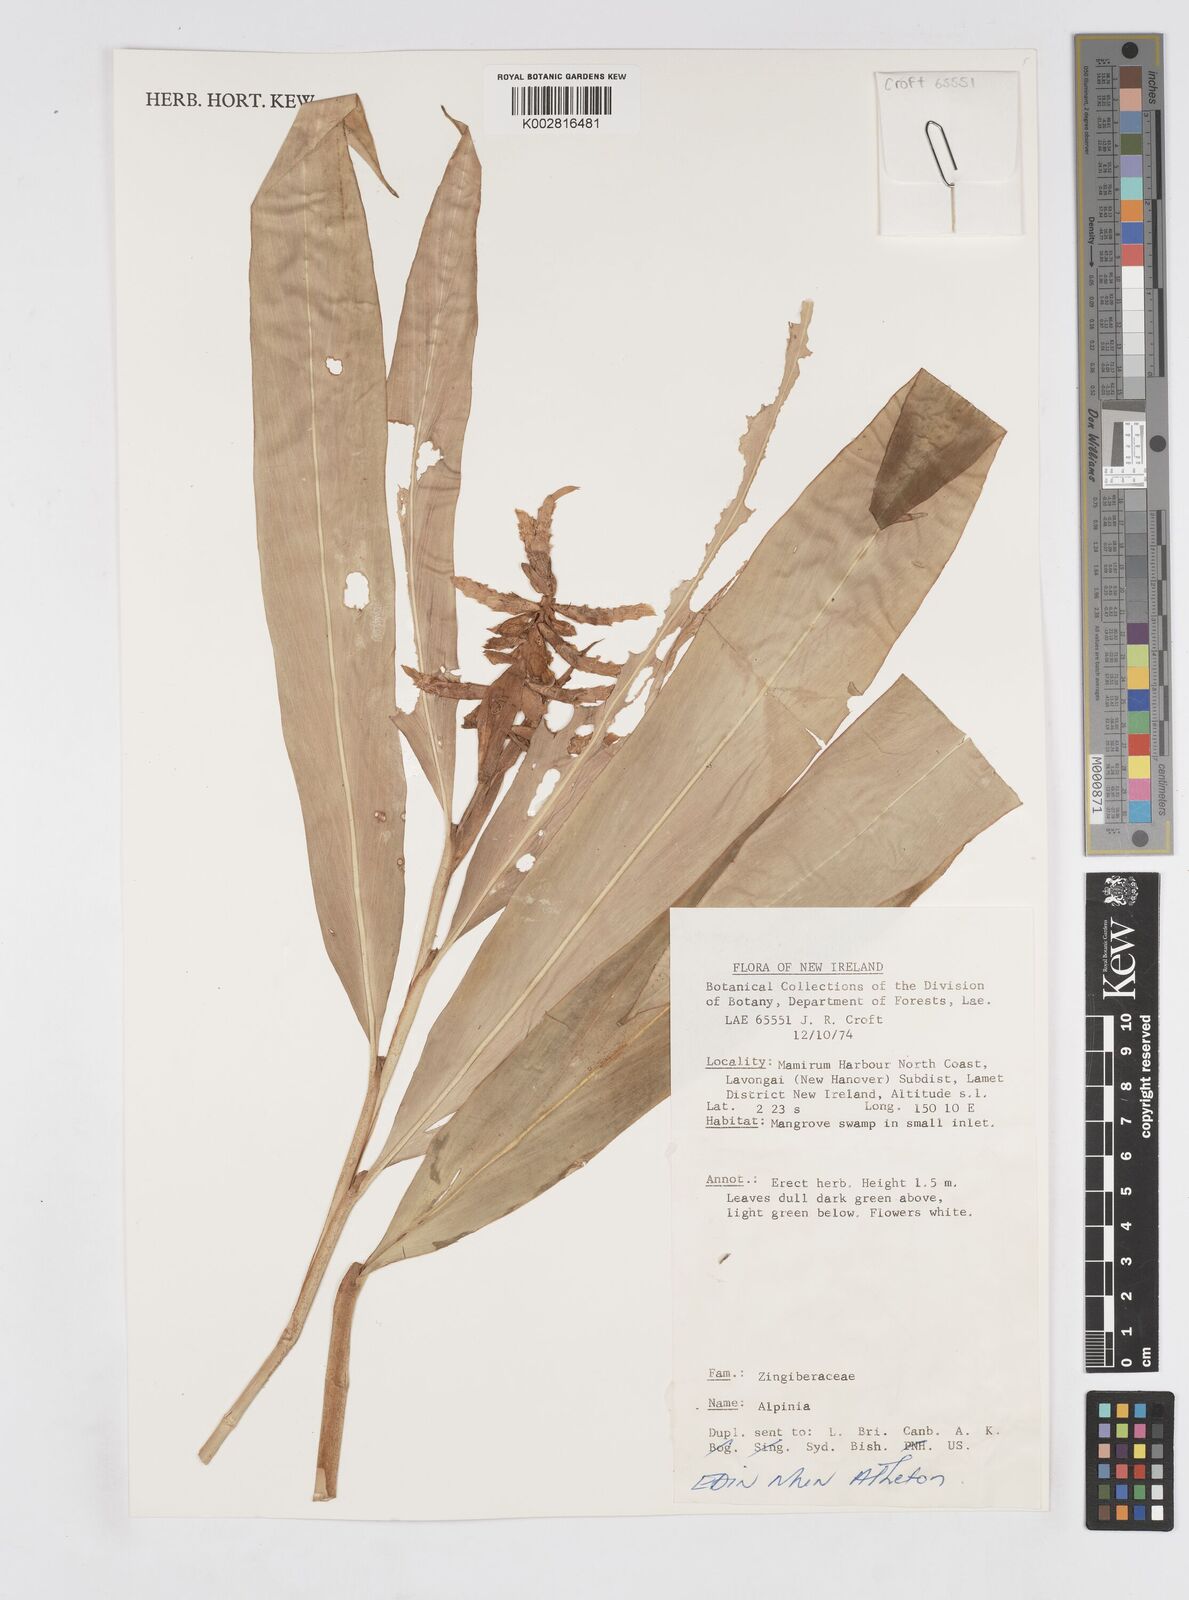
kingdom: Plantae
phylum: Tracheophyta
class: Liliopsida
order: Zingiberales
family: Zingiberaceae
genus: Alpinia
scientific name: Alpinia
